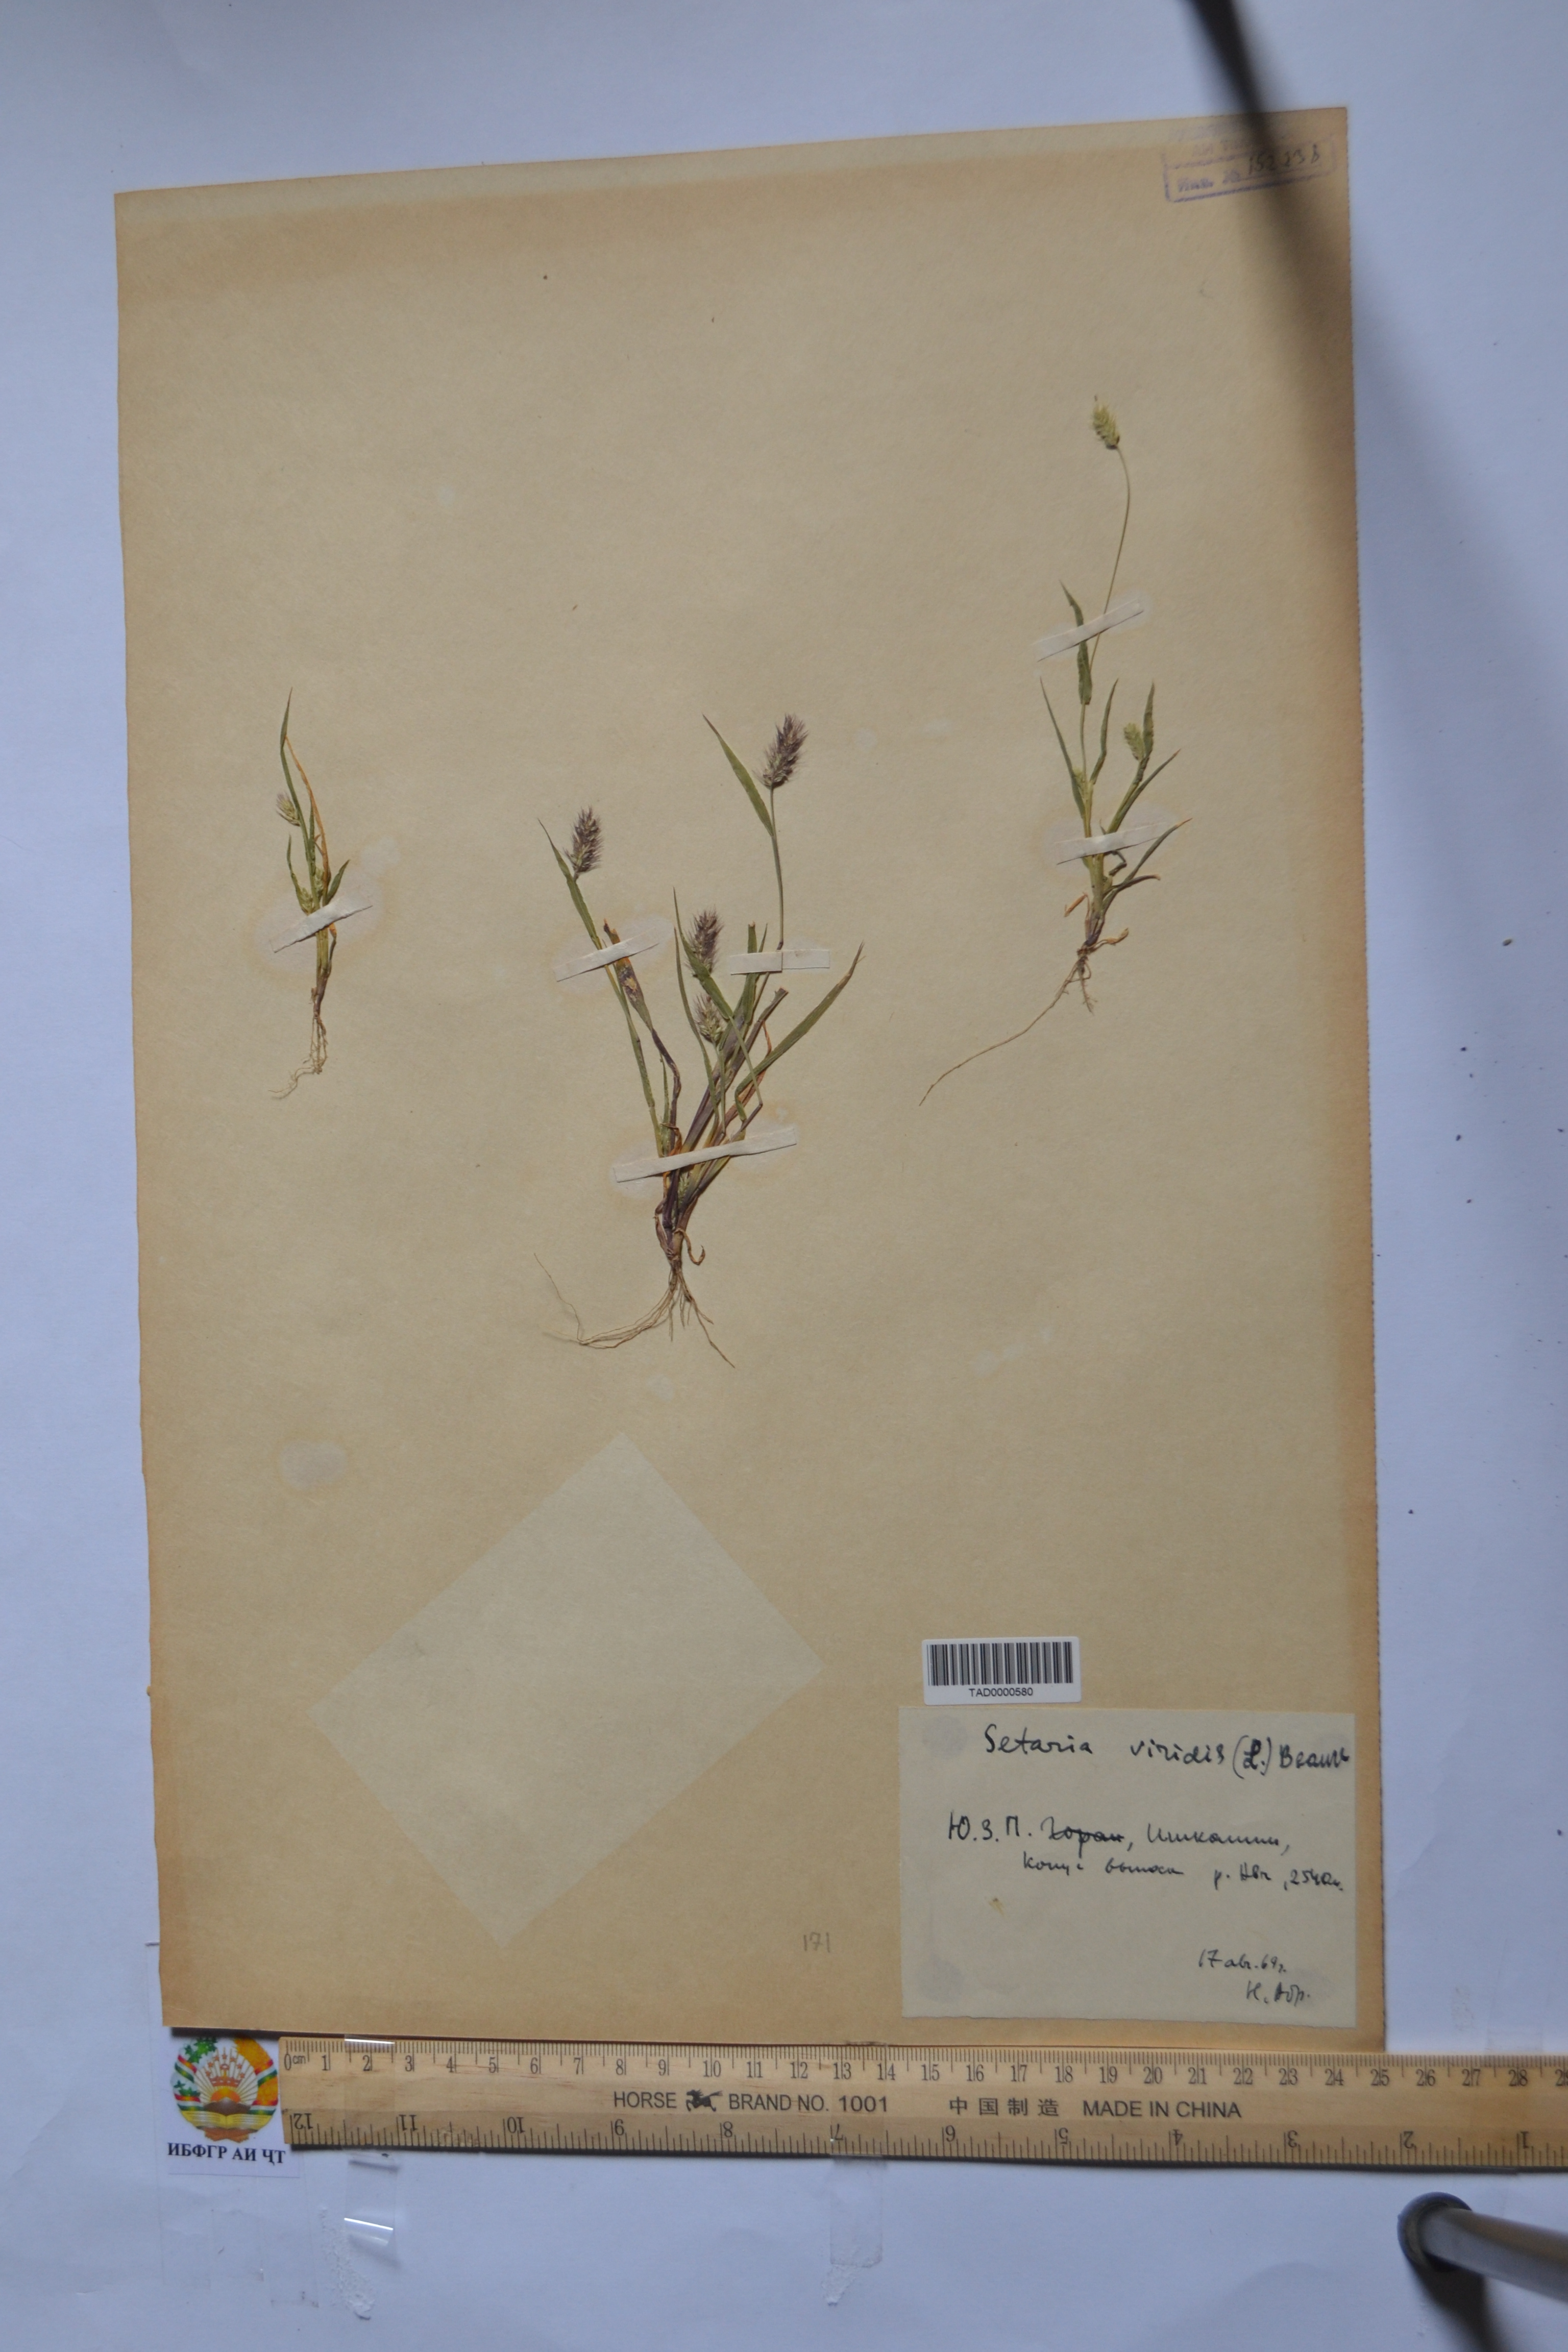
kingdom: Plantae
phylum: Tracheophyta
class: Liliopsida
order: Poales
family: Poaceae
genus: Setaria
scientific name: Setaria viridis
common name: Green bristlegrass
